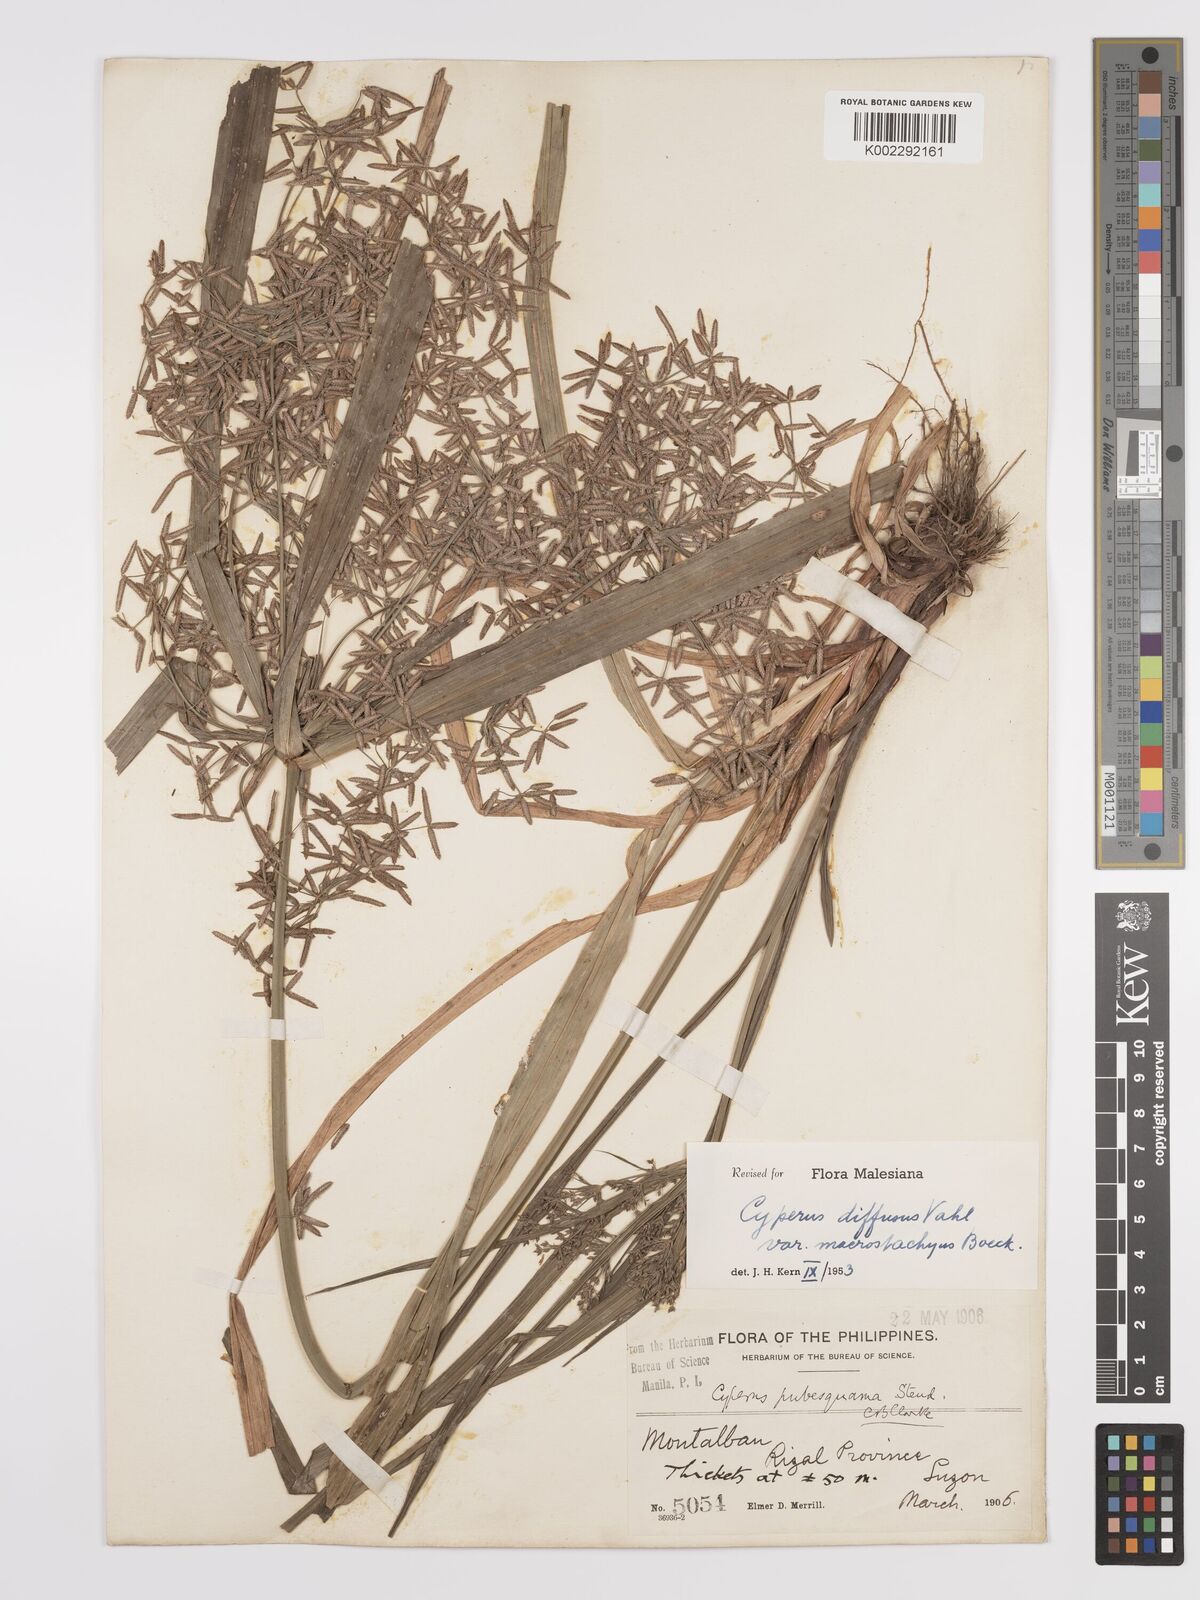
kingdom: Plantae
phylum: Tracheophyta
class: Liliopsida
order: Poales
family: Cyperaceae
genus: Cyperus
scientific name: Cyperus diffusus
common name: Dwarf umbrella grass
